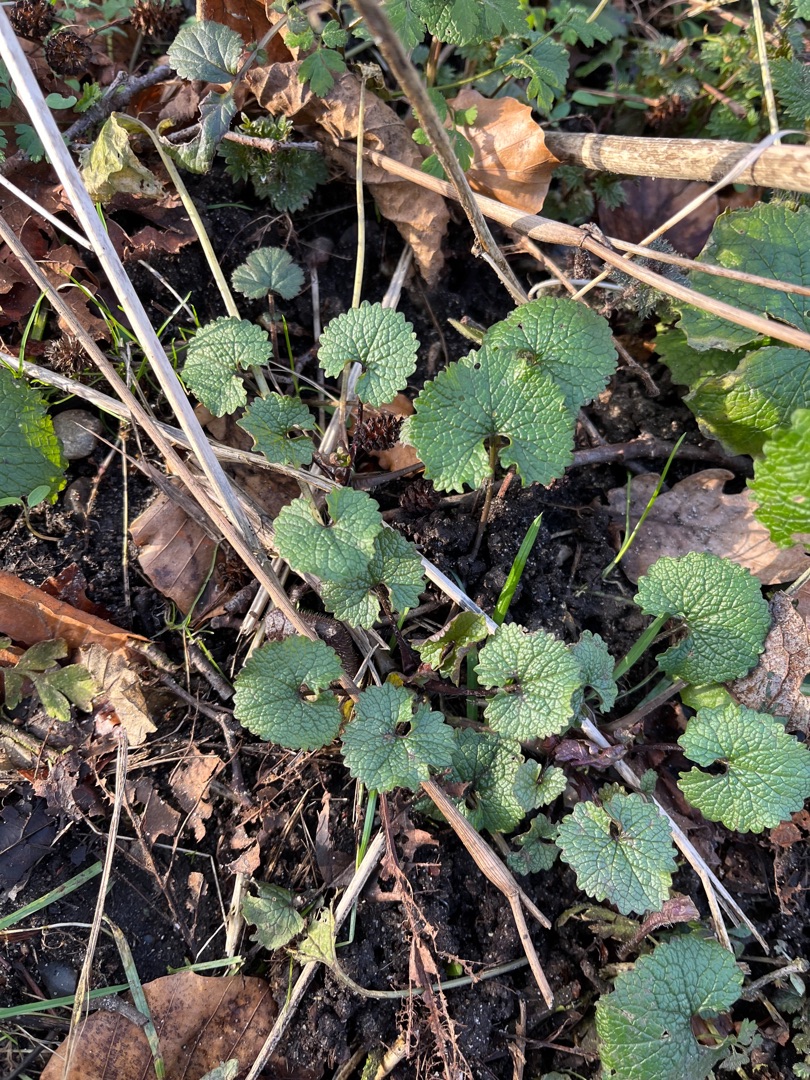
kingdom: Plantae
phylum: Tracheophyta
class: Magnoliopsida
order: Brassicales
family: Brassicaceae
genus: Alliaria
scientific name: Alliaria petiolata
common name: Løgkarse
